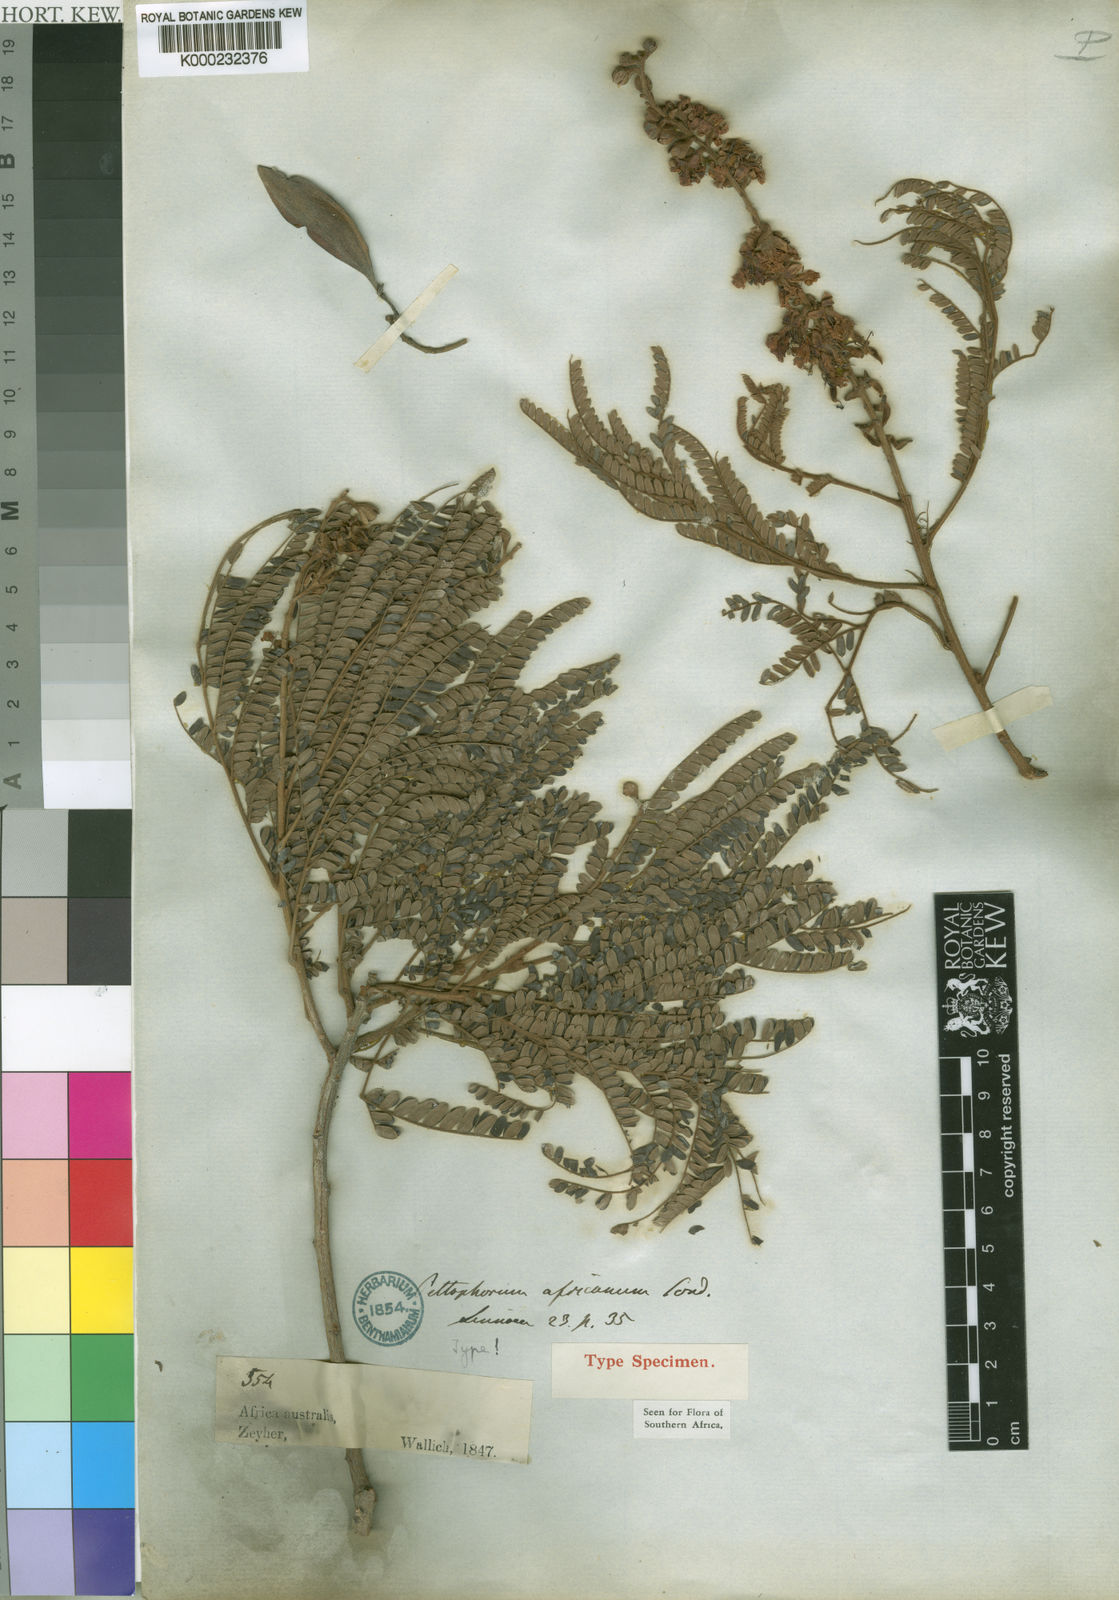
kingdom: Plantae
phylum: Tracheophyta
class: Magnoliopsida
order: Fabales
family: Fabaceae
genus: Peltophorum
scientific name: Peltophorum africanum
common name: African black wattle
